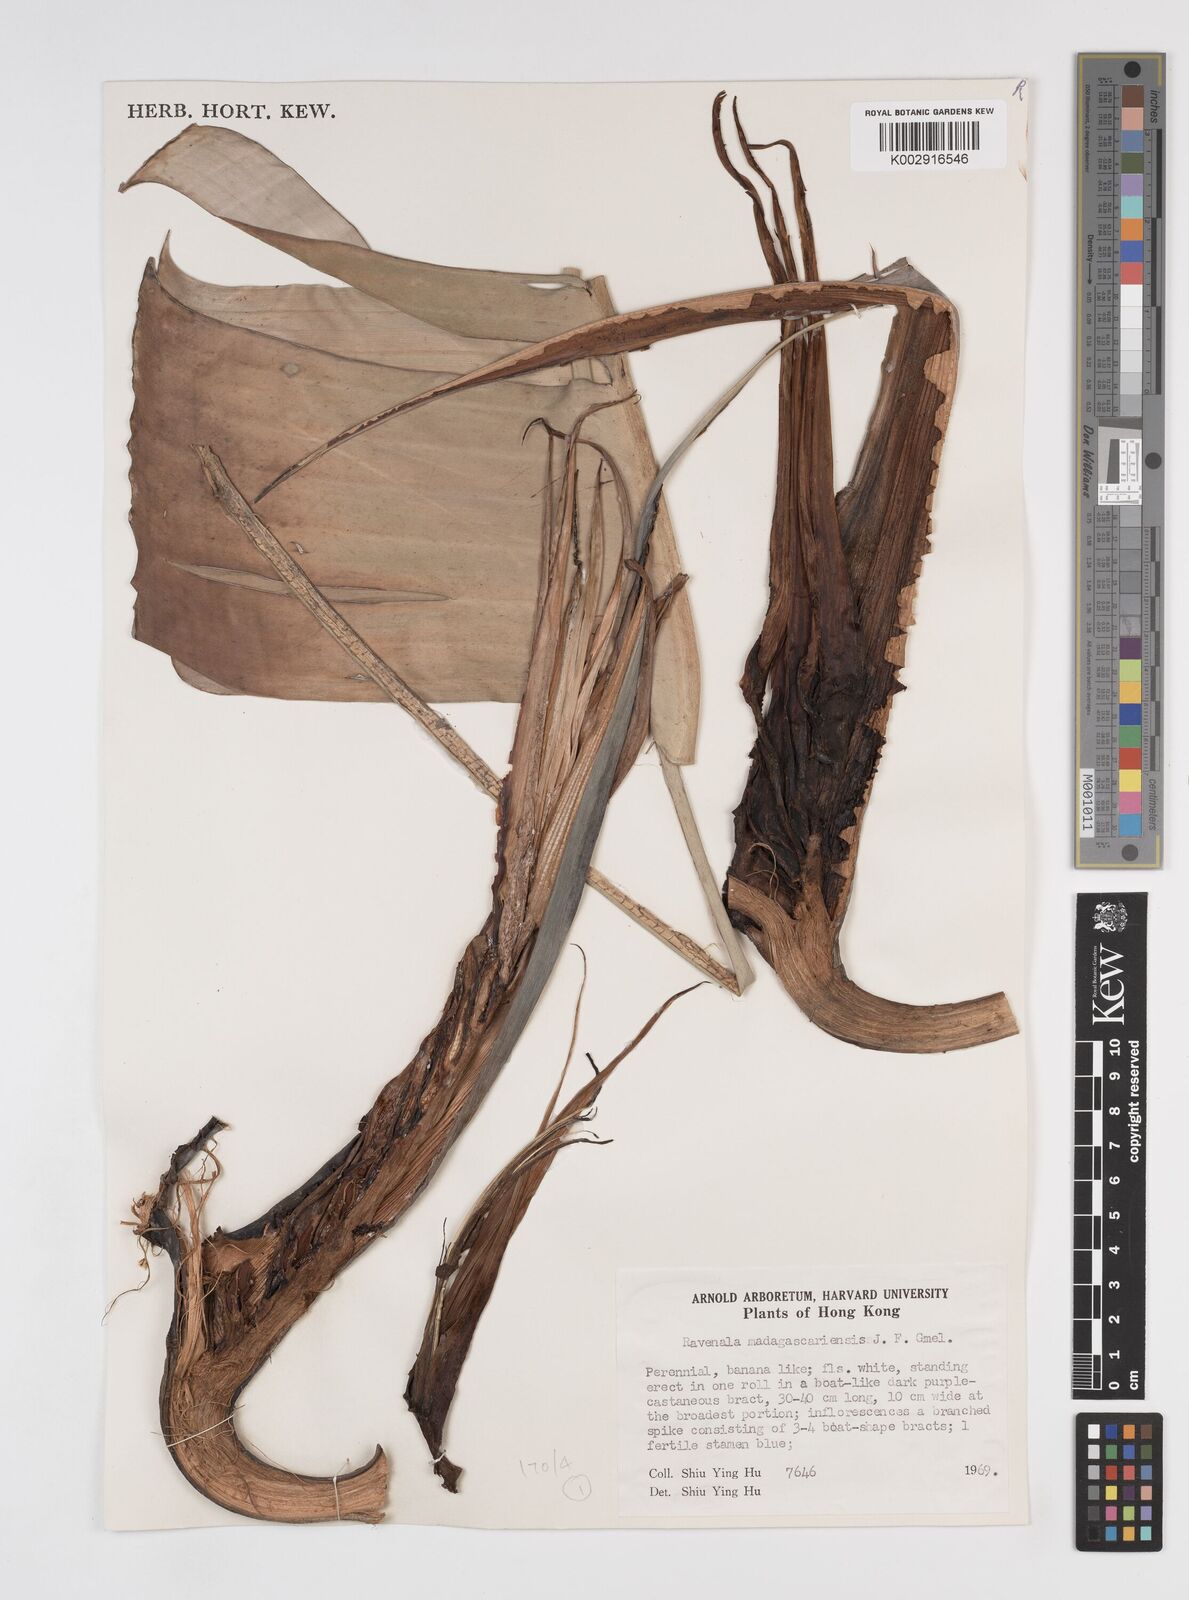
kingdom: Plantae
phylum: Tracheophyta
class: Liliopsida
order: Zingiberales
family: Strelitziaceae
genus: Ravenala
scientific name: Ravenala madagascariensis
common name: Traveler's-palm
